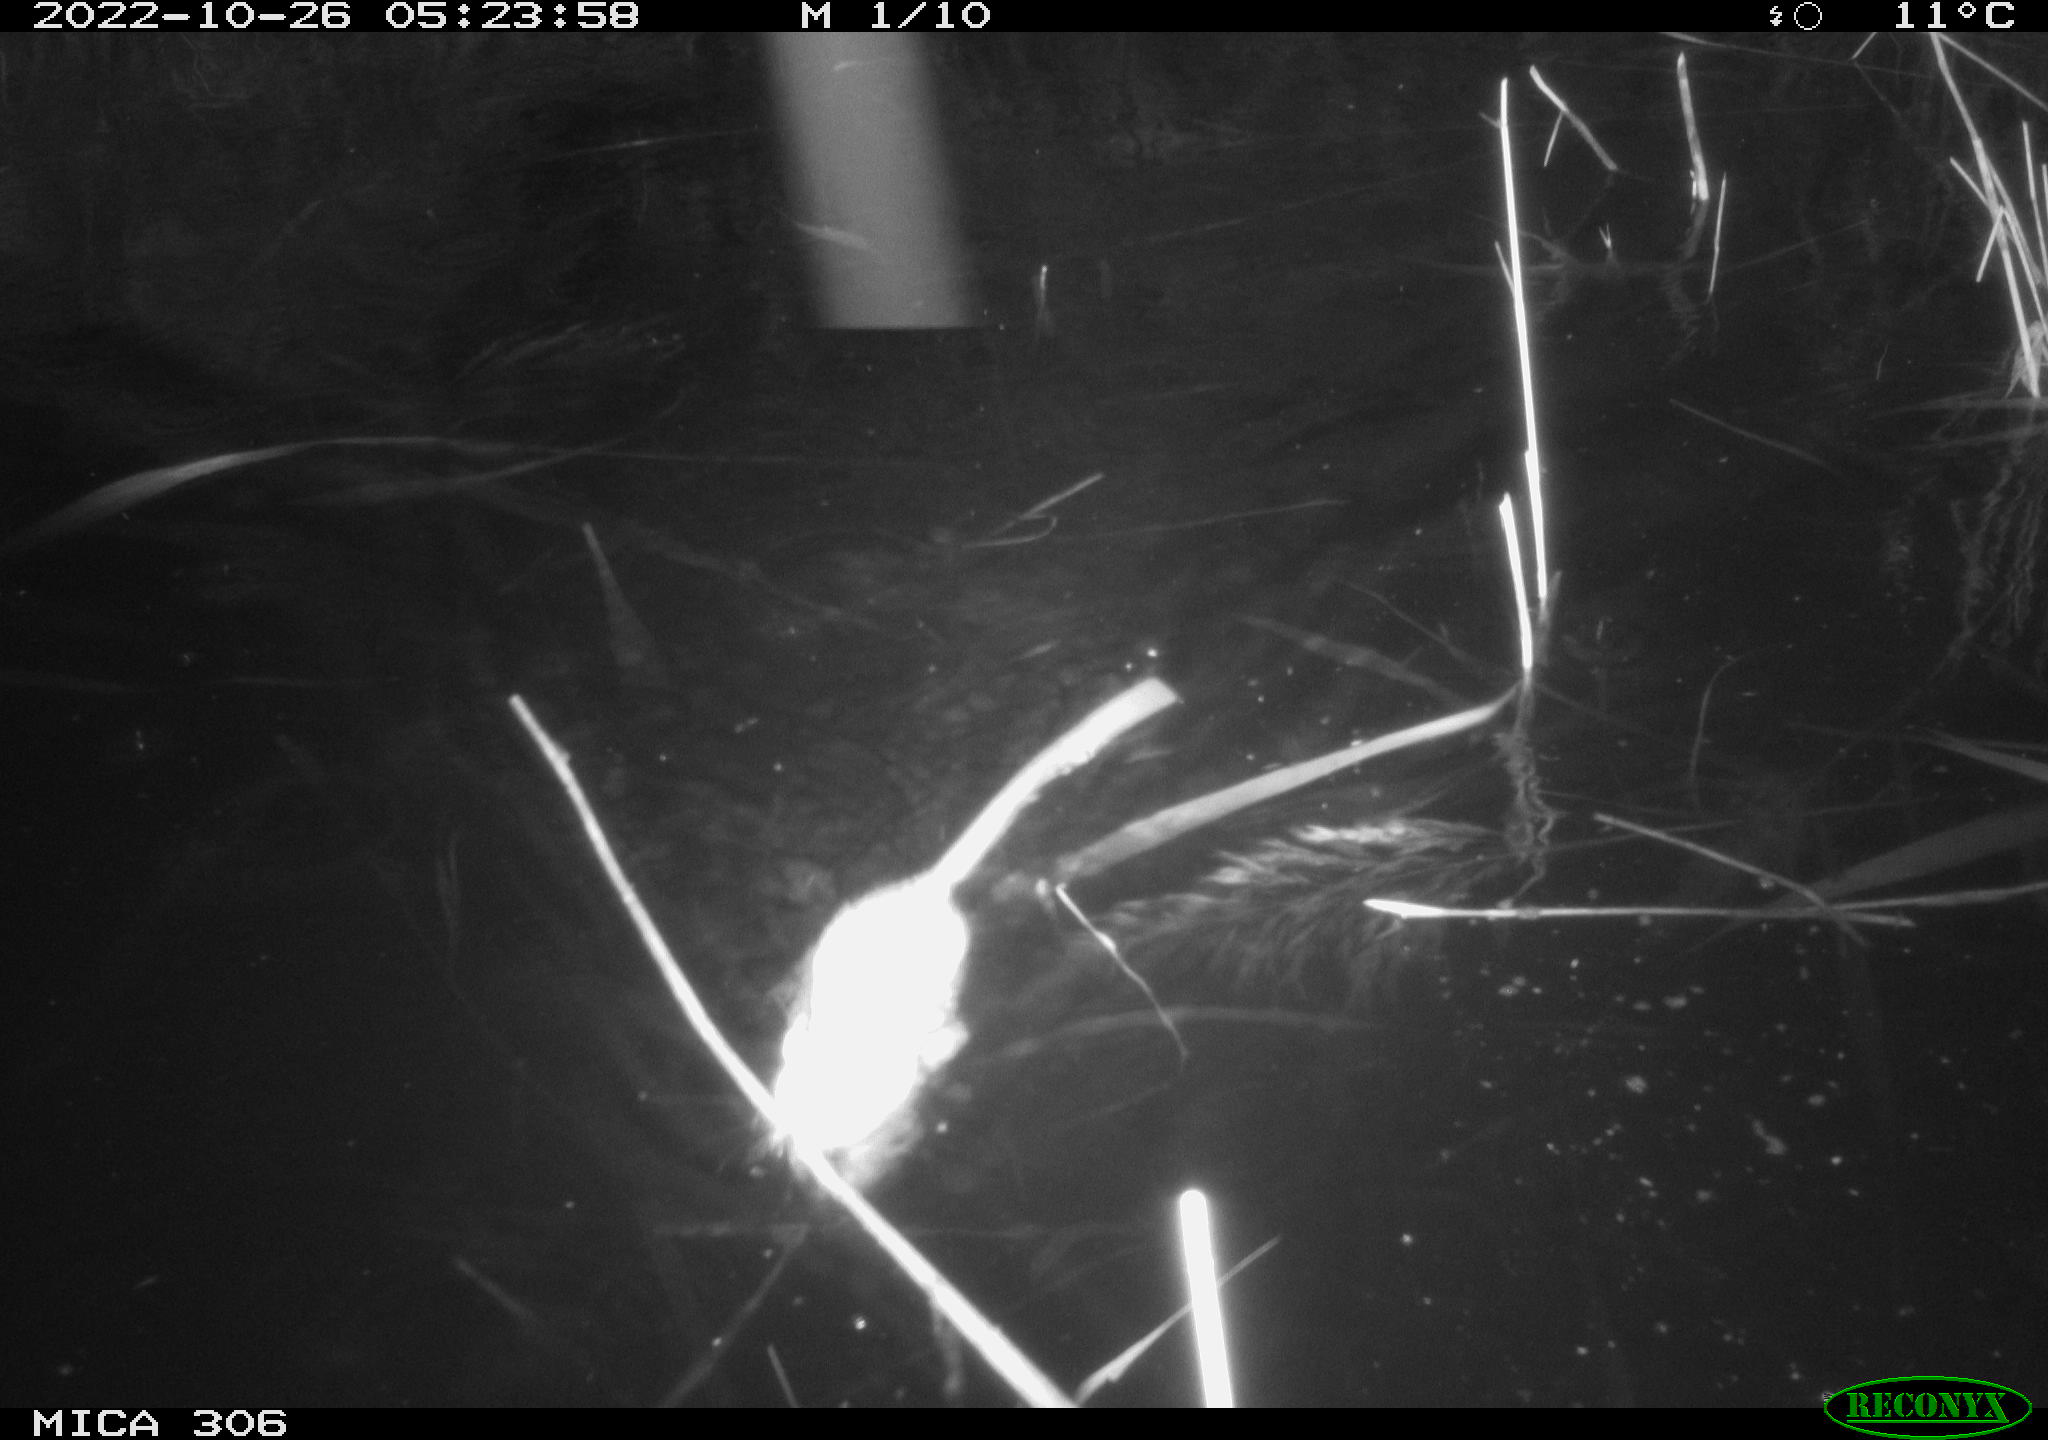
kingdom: Animalia
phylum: Chordata
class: Mammalia
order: Rodentia
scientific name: Rodentia
